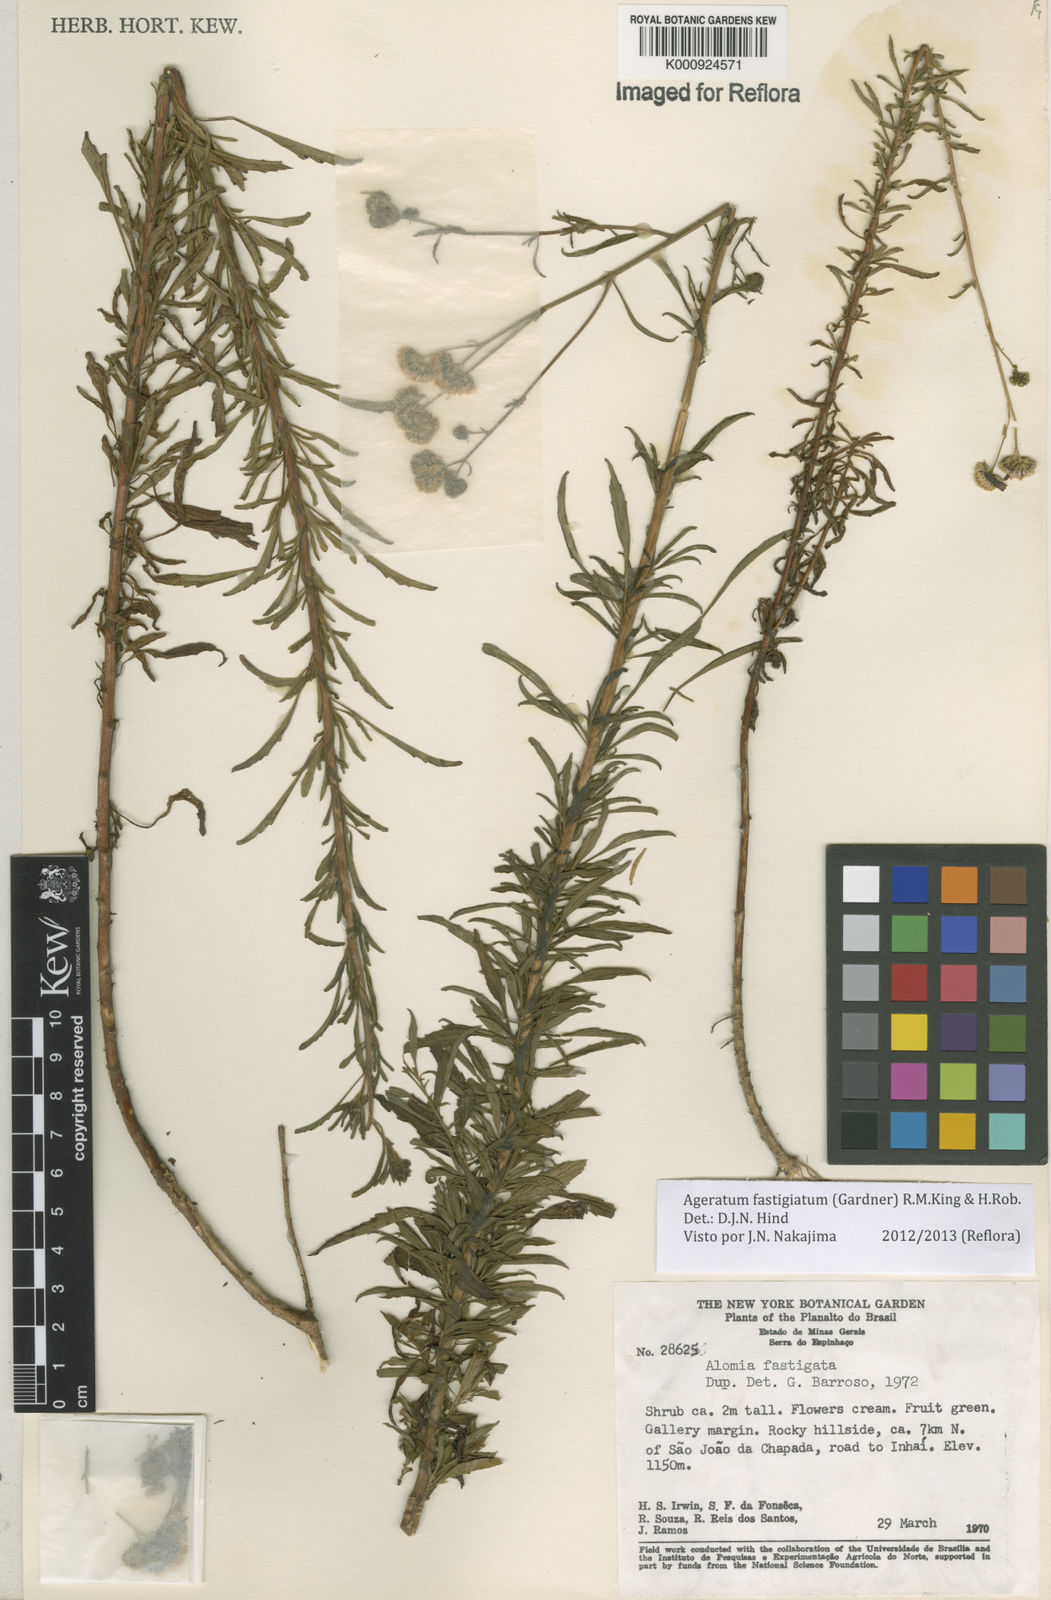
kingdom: Plantae
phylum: Tracheophyta
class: Magnoliopsida
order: Asterales
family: Asteraceae
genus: Ageratum
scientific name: Ageratum fastigiatum
